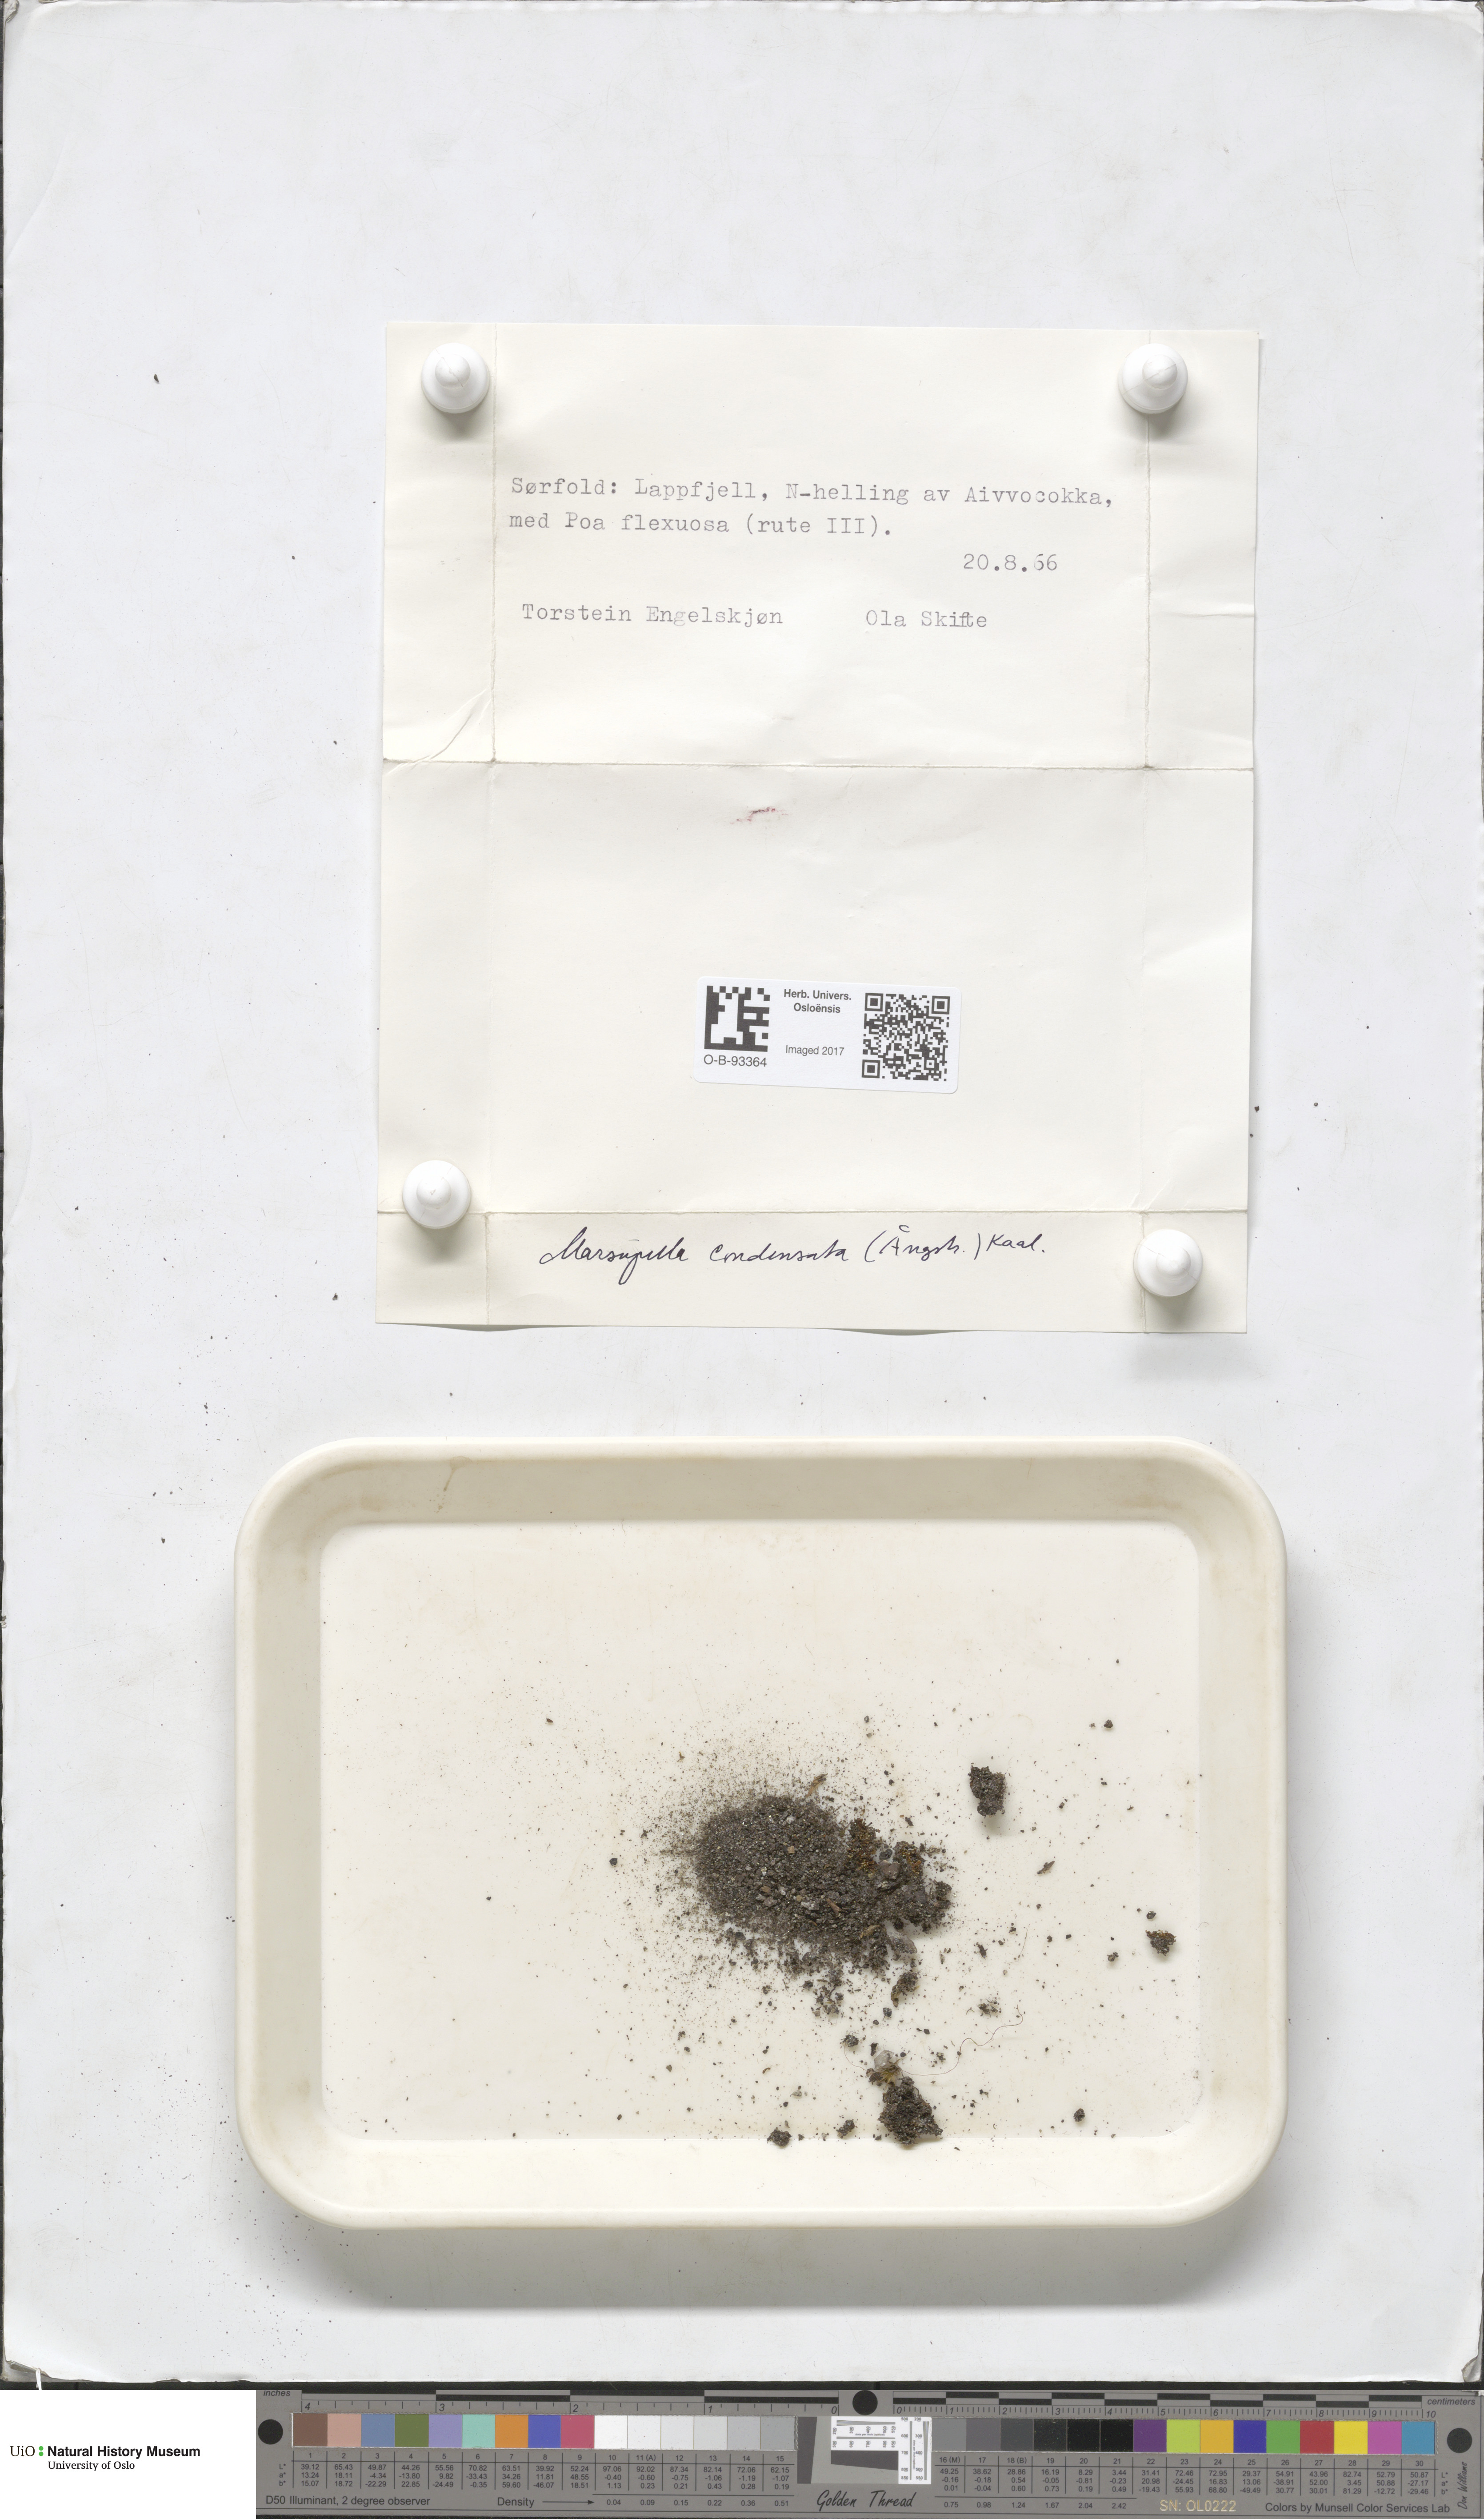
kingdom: Plantae
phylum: Marchantiophyta
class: Jungermanniopsida
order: Jungermanniales
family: Gymnomitriaceae
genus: Gymnomitrion
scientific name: Gymnomitrion brevissimum
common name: Snow rustwort
